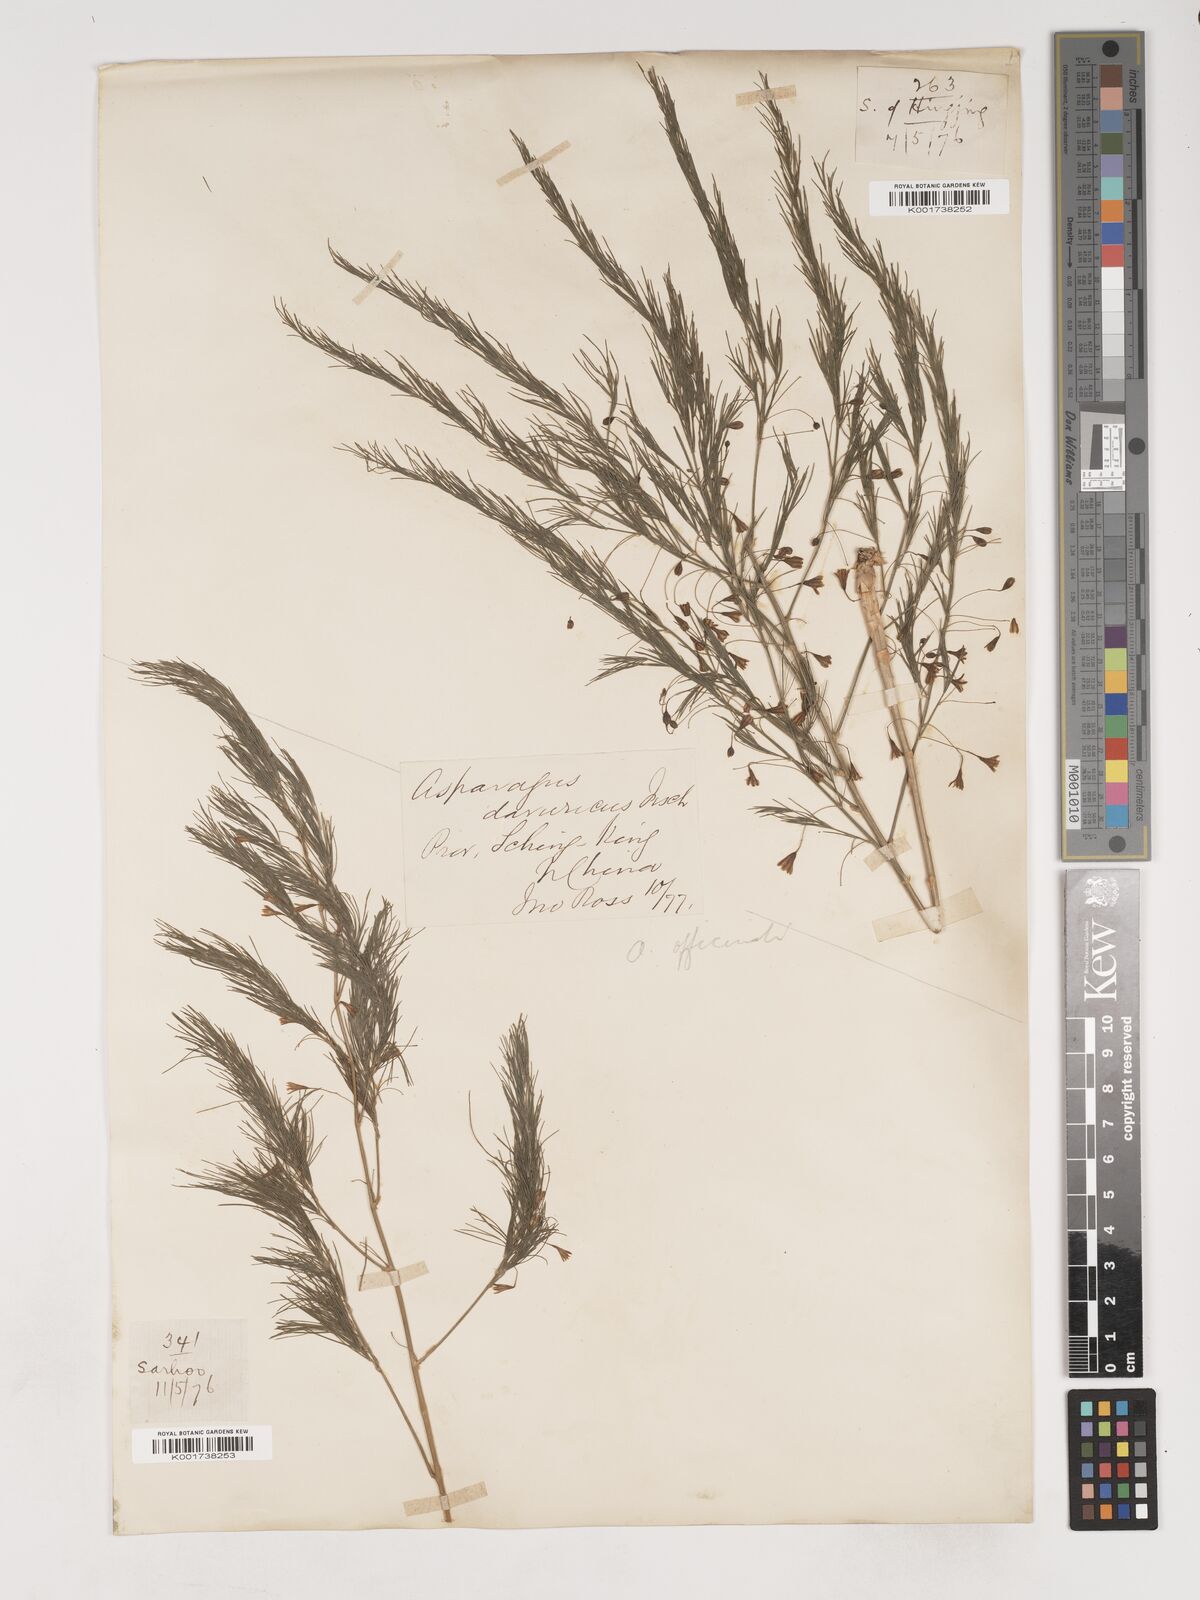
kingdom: Plantae
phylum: Tracheophyta
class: Liliopsida
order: Asparagales
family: Asparagaceae
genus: Asparagus
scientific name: Asparagus oligoclonos
